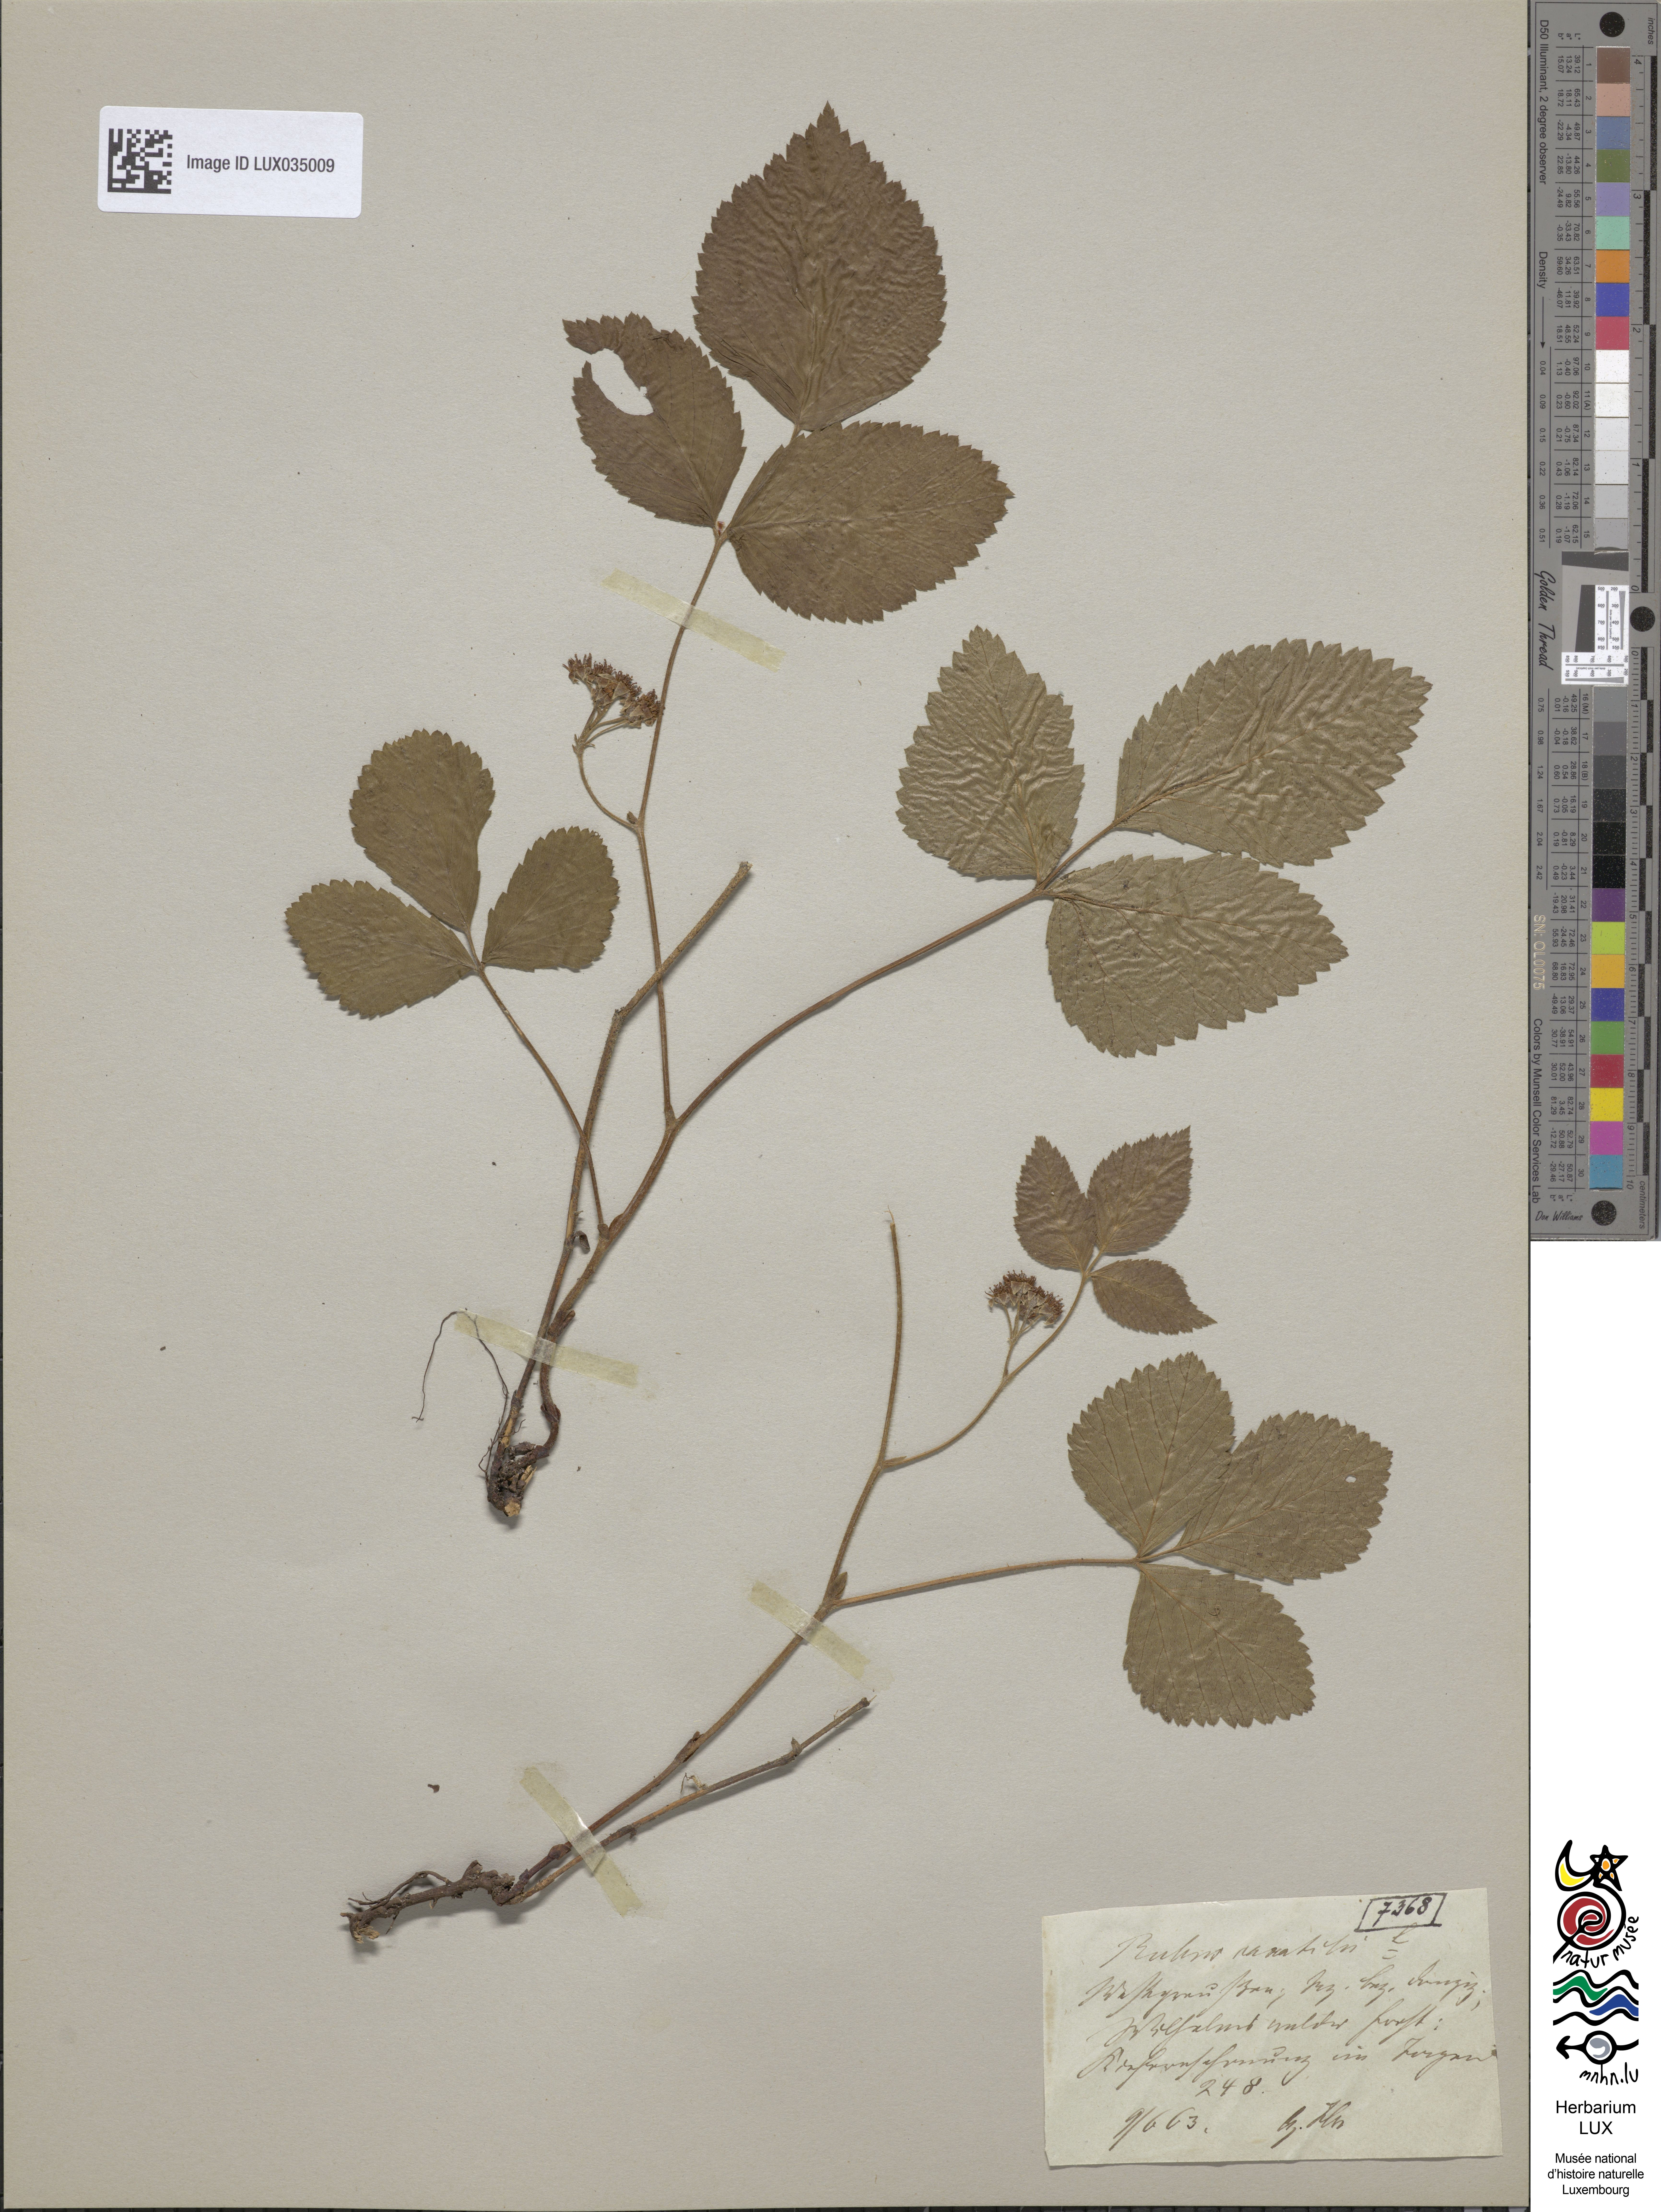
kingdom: Plantae
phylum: Tracheophyta
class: Magnoliopsida
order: Rosales
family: Rosaceae
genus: Rubus
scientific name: Rubus saxatilis
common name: Stone bramble
